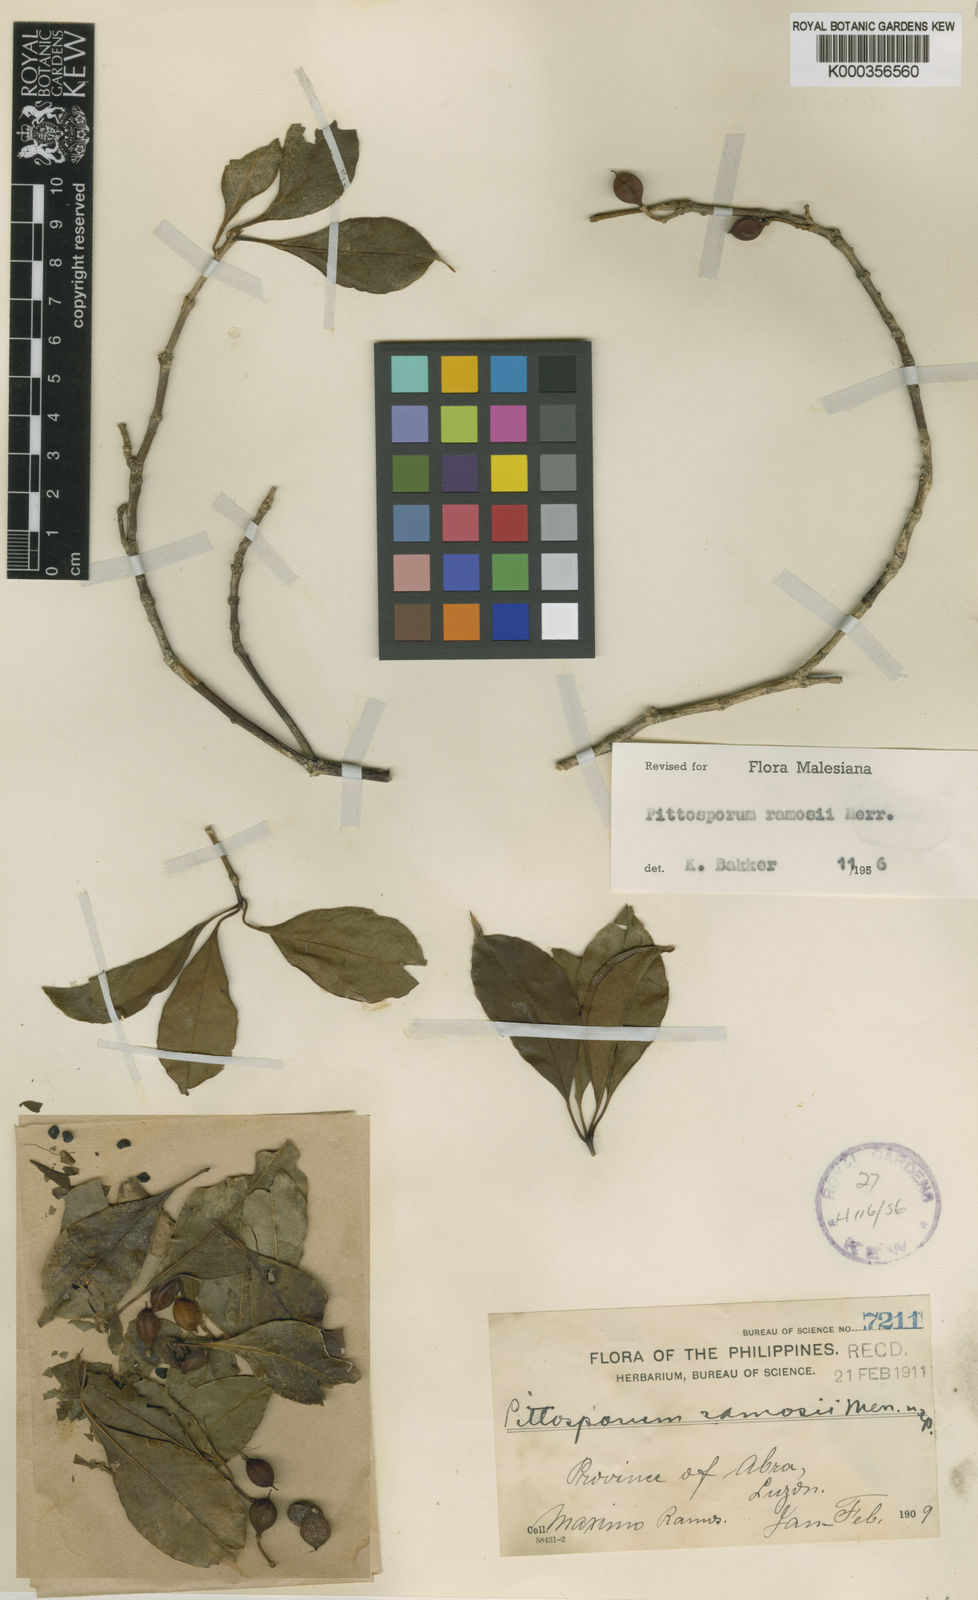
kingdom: Plantae
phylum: Tracheophyta
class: Magnoliopsida
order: Apiales
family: Pittosporaceae
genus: Pittosporum
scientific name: Pittosporum ramosii
